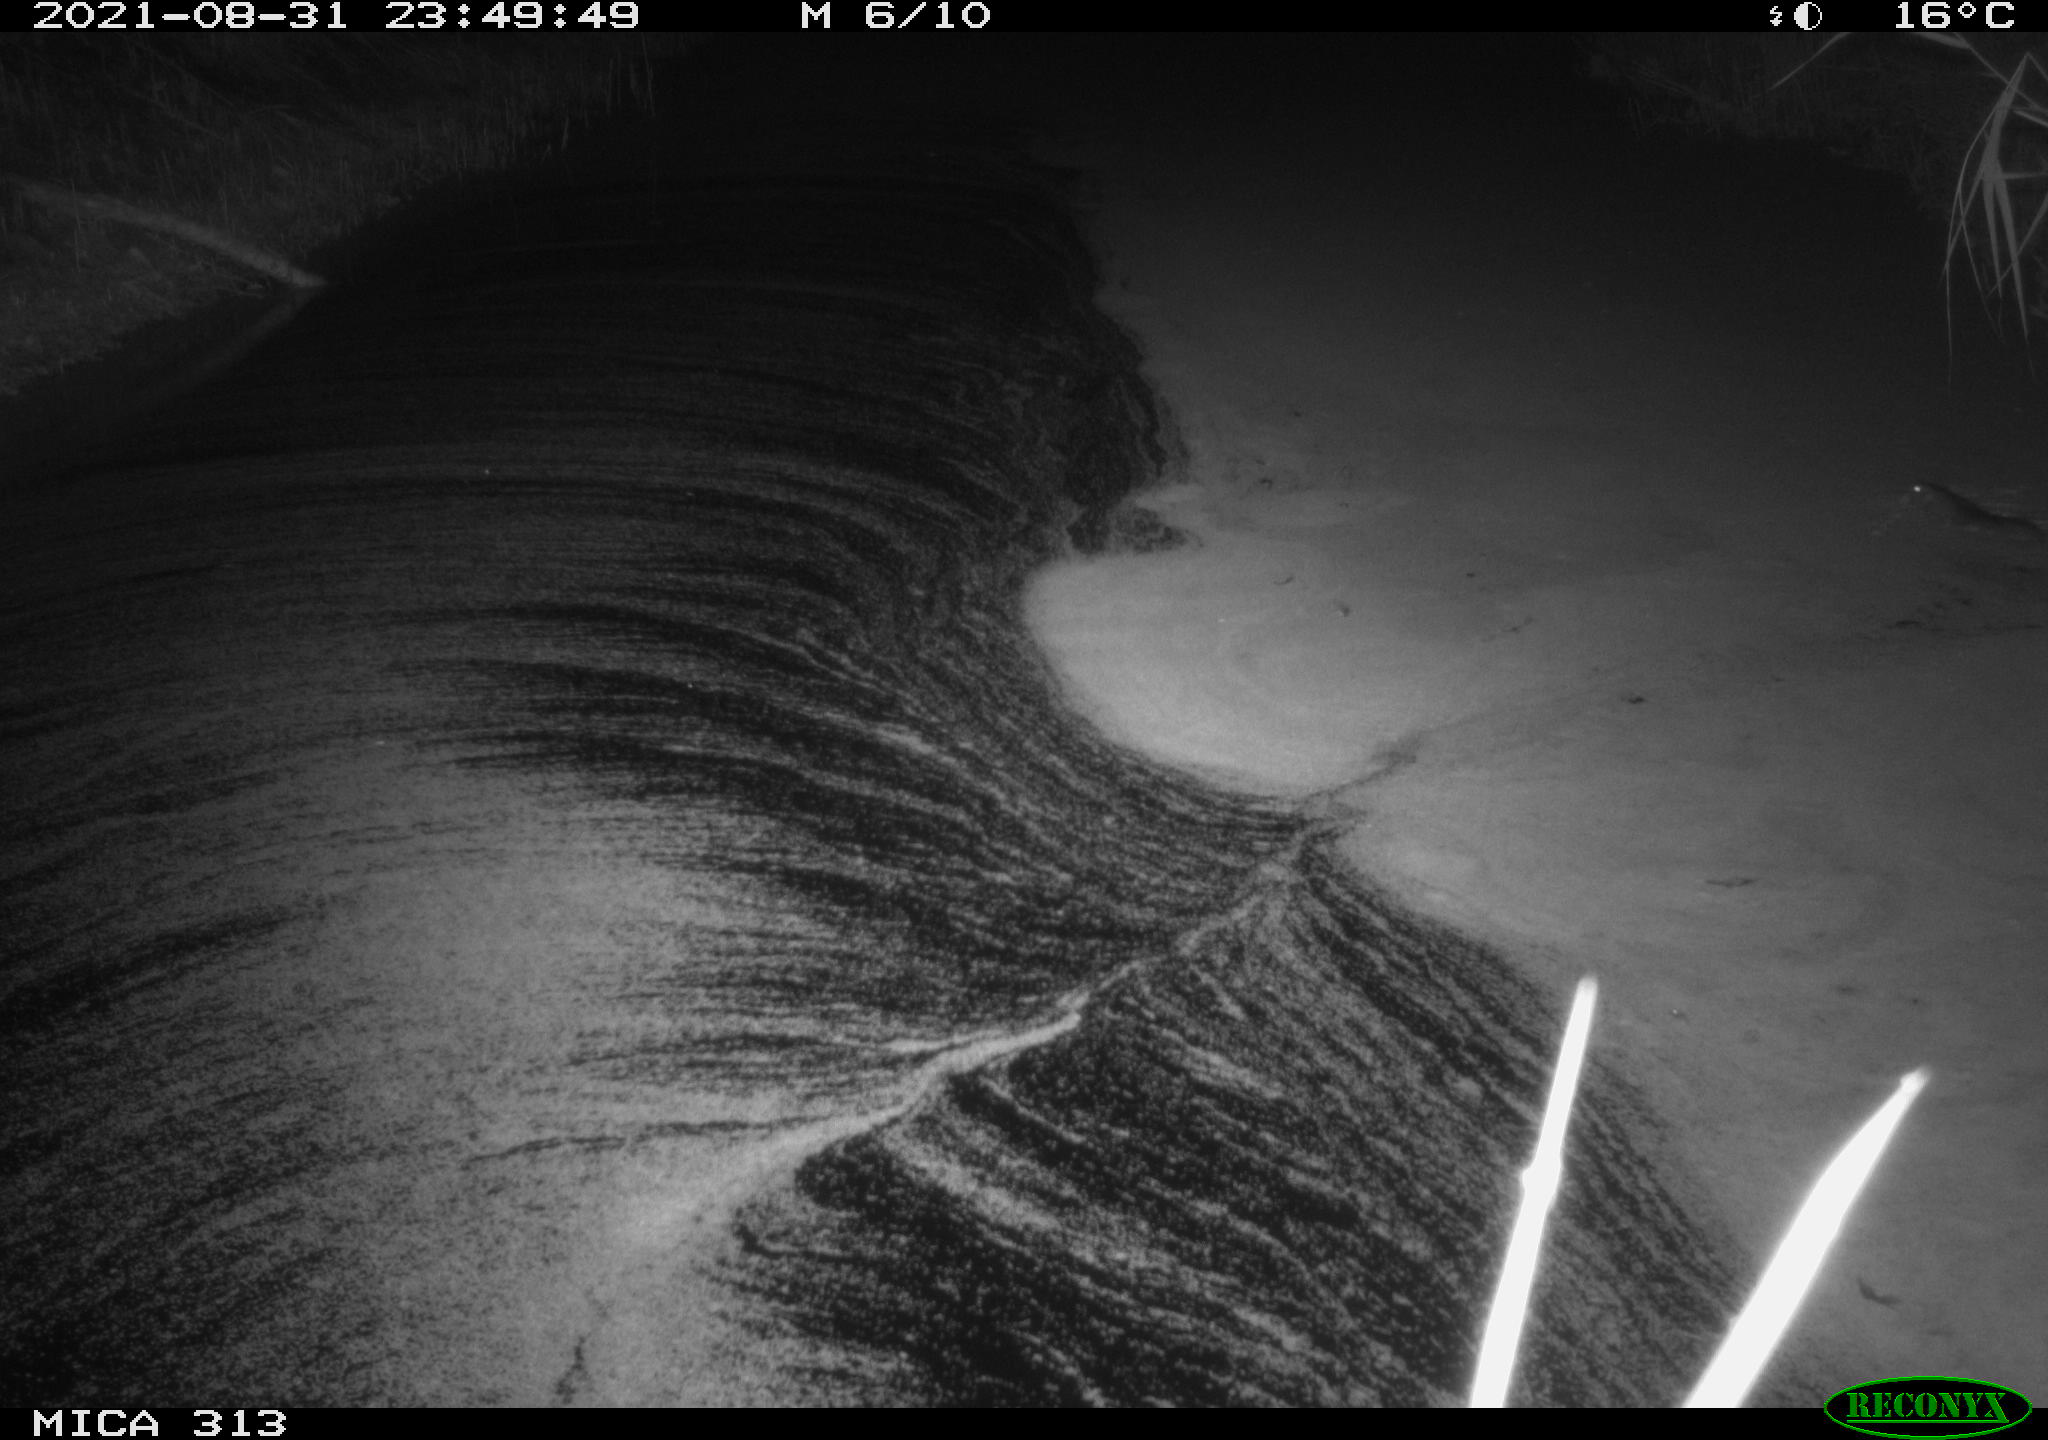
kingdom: Animalia
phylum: Chordata
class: Mammalia
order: Rodentia
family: Muridae
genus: Rattus
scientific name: Rattus norvegicus
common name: Brown rat
